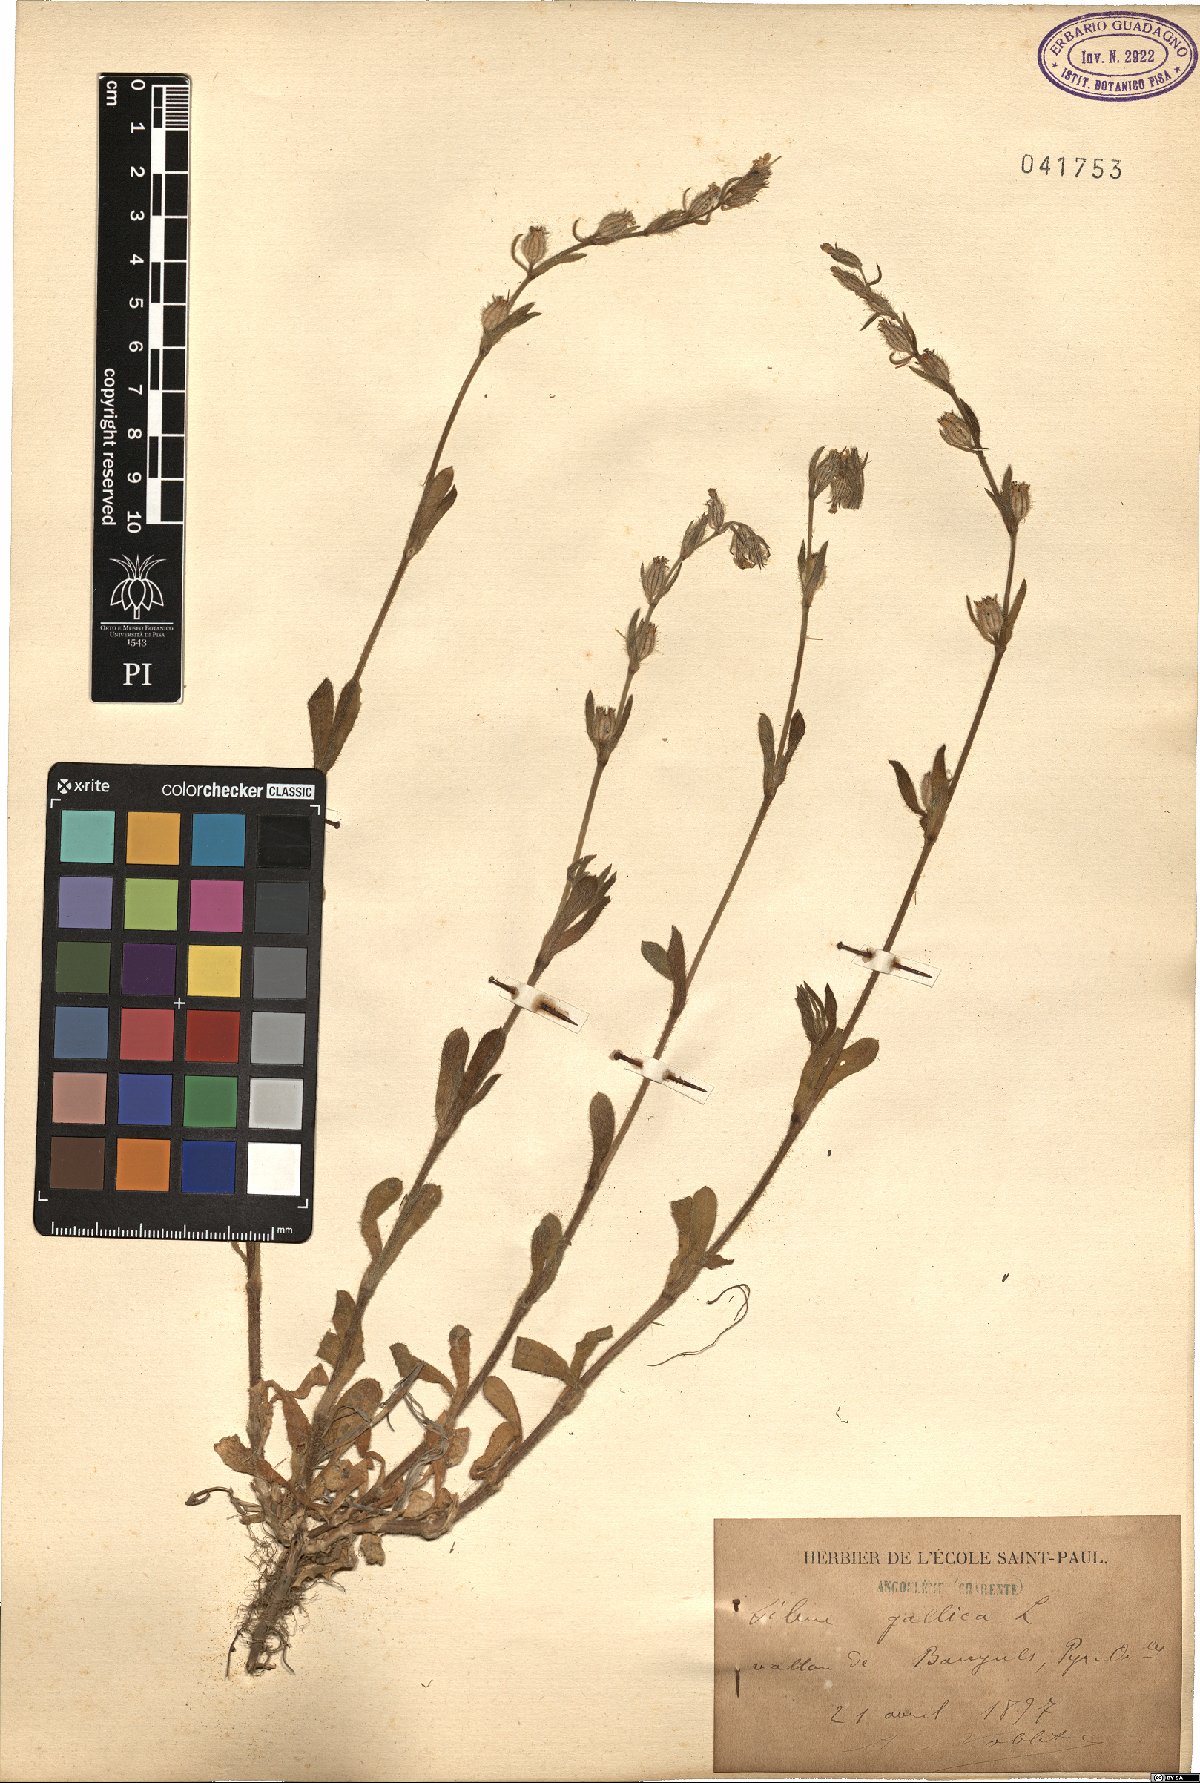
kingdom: Plantae
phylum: Tracheophyta
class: Magnoliopsida
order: Caryophyllales
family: Caryophyllaceae
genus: Silene
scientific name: Silene gallica
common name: Small-flowered catchfly
